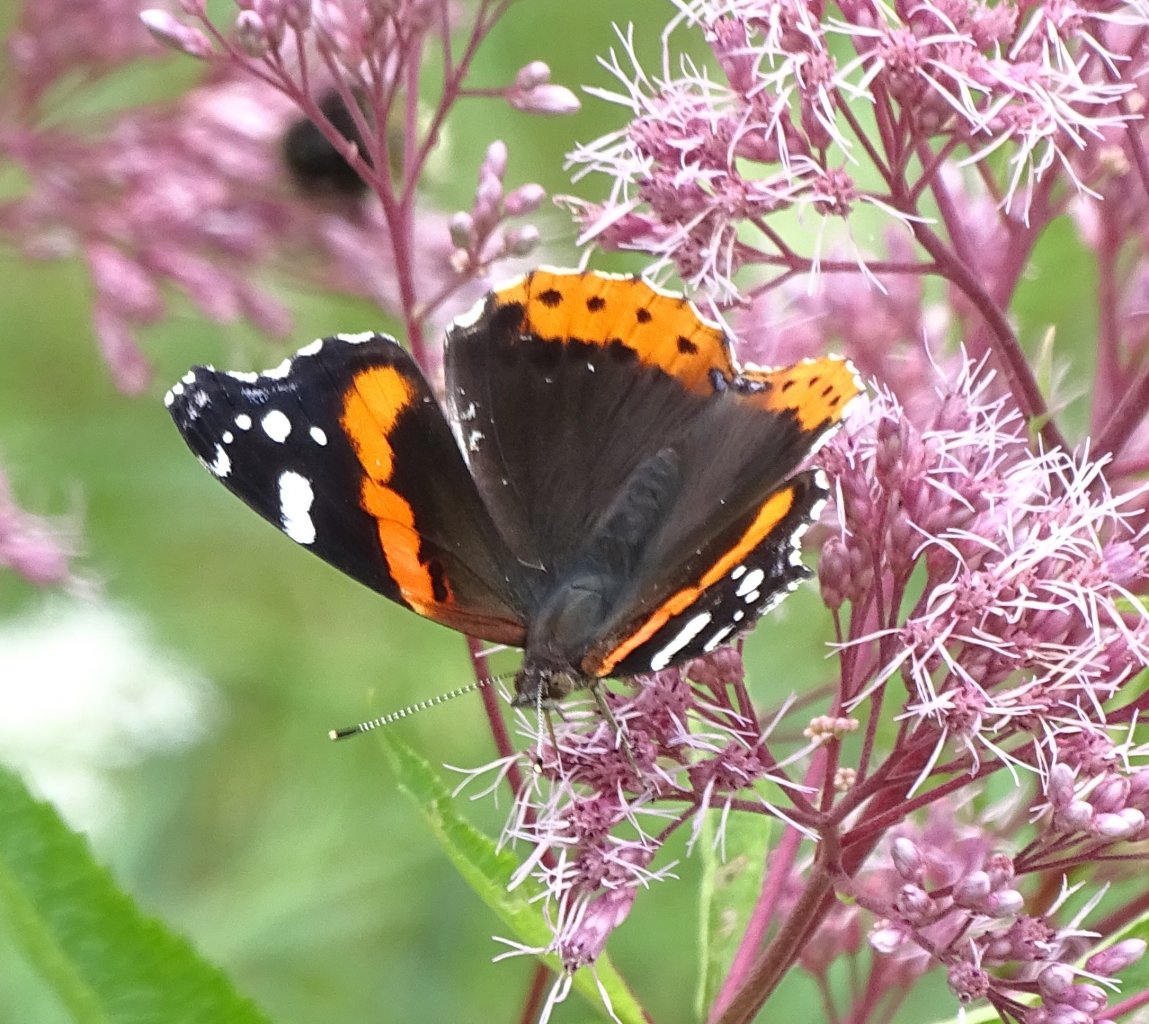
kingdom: Animalia
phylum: Arthropoda
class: Insecta
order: Lepidoptera
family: Nymphalidae
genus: Vanessa
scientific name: Vanessa atalanta
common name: Red Admiral
